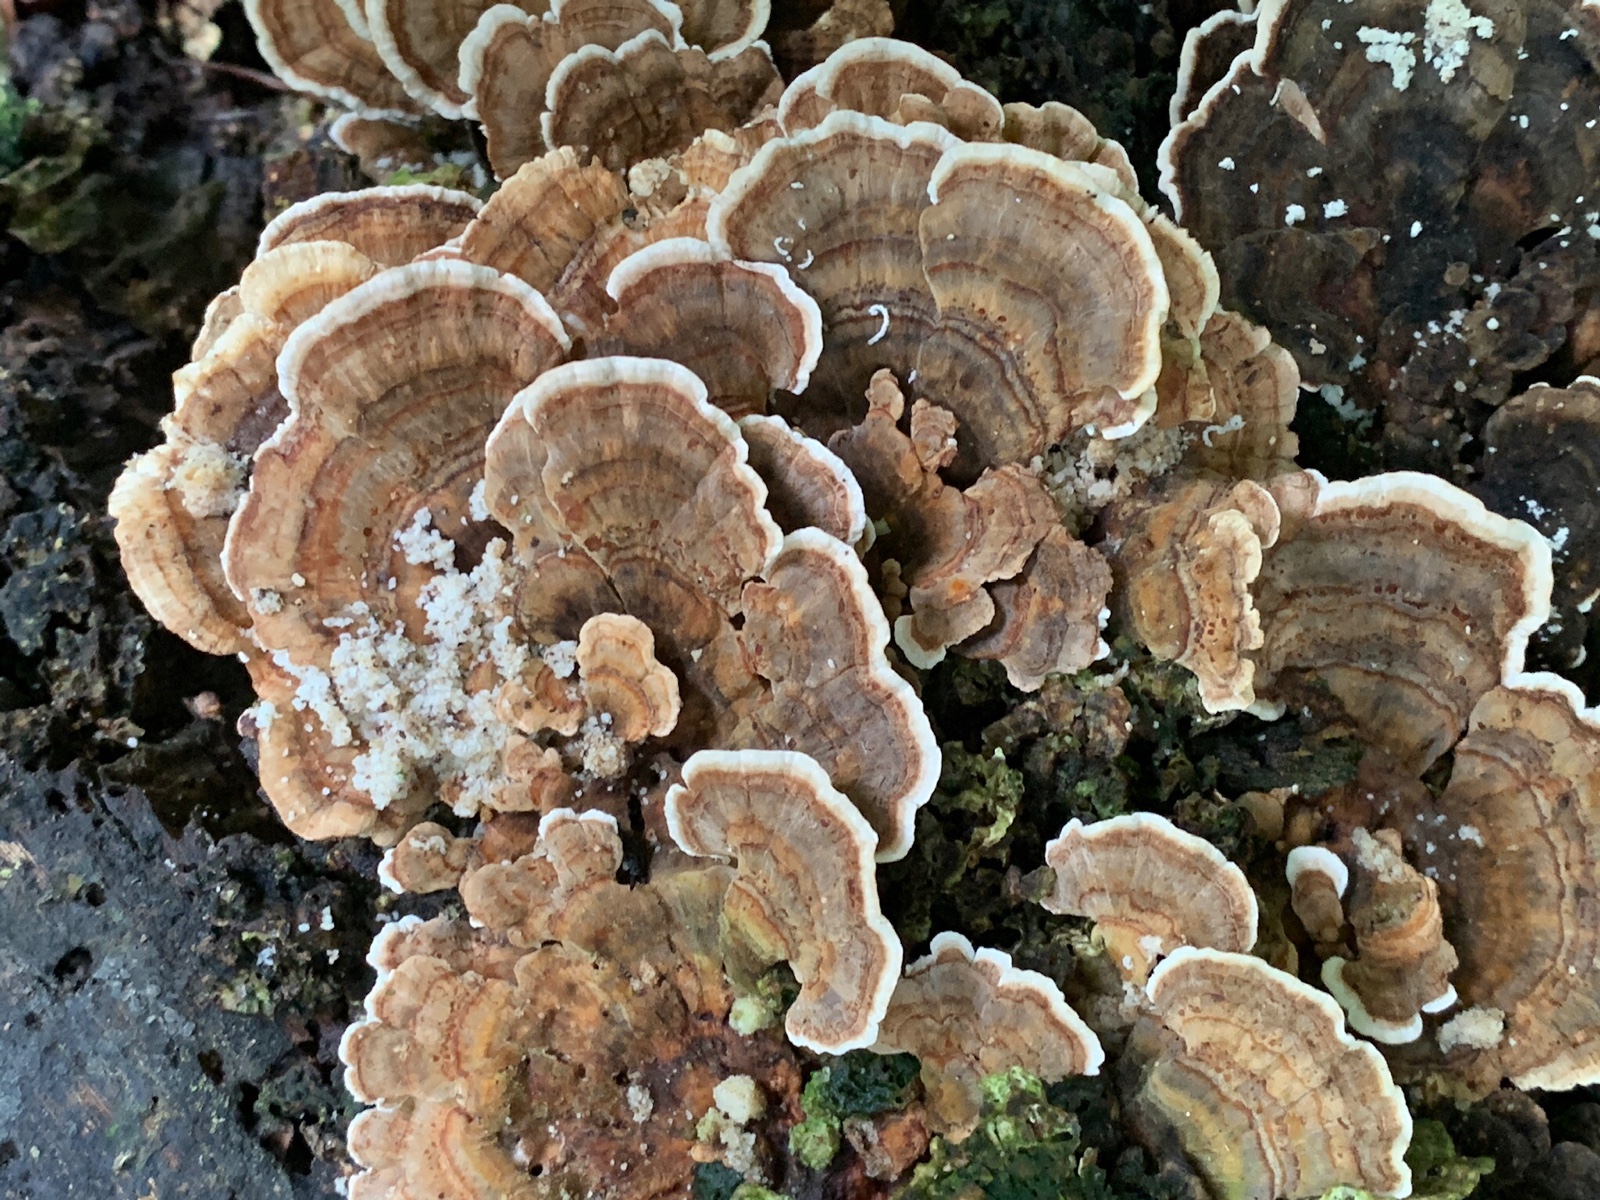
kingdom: Fungi
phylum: Basidiomycota
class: Agaricomycetes
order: Polyporales
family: Polyporaceae
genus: Trametes
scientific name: Trametes versicolor
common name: broget læderporesvamp
